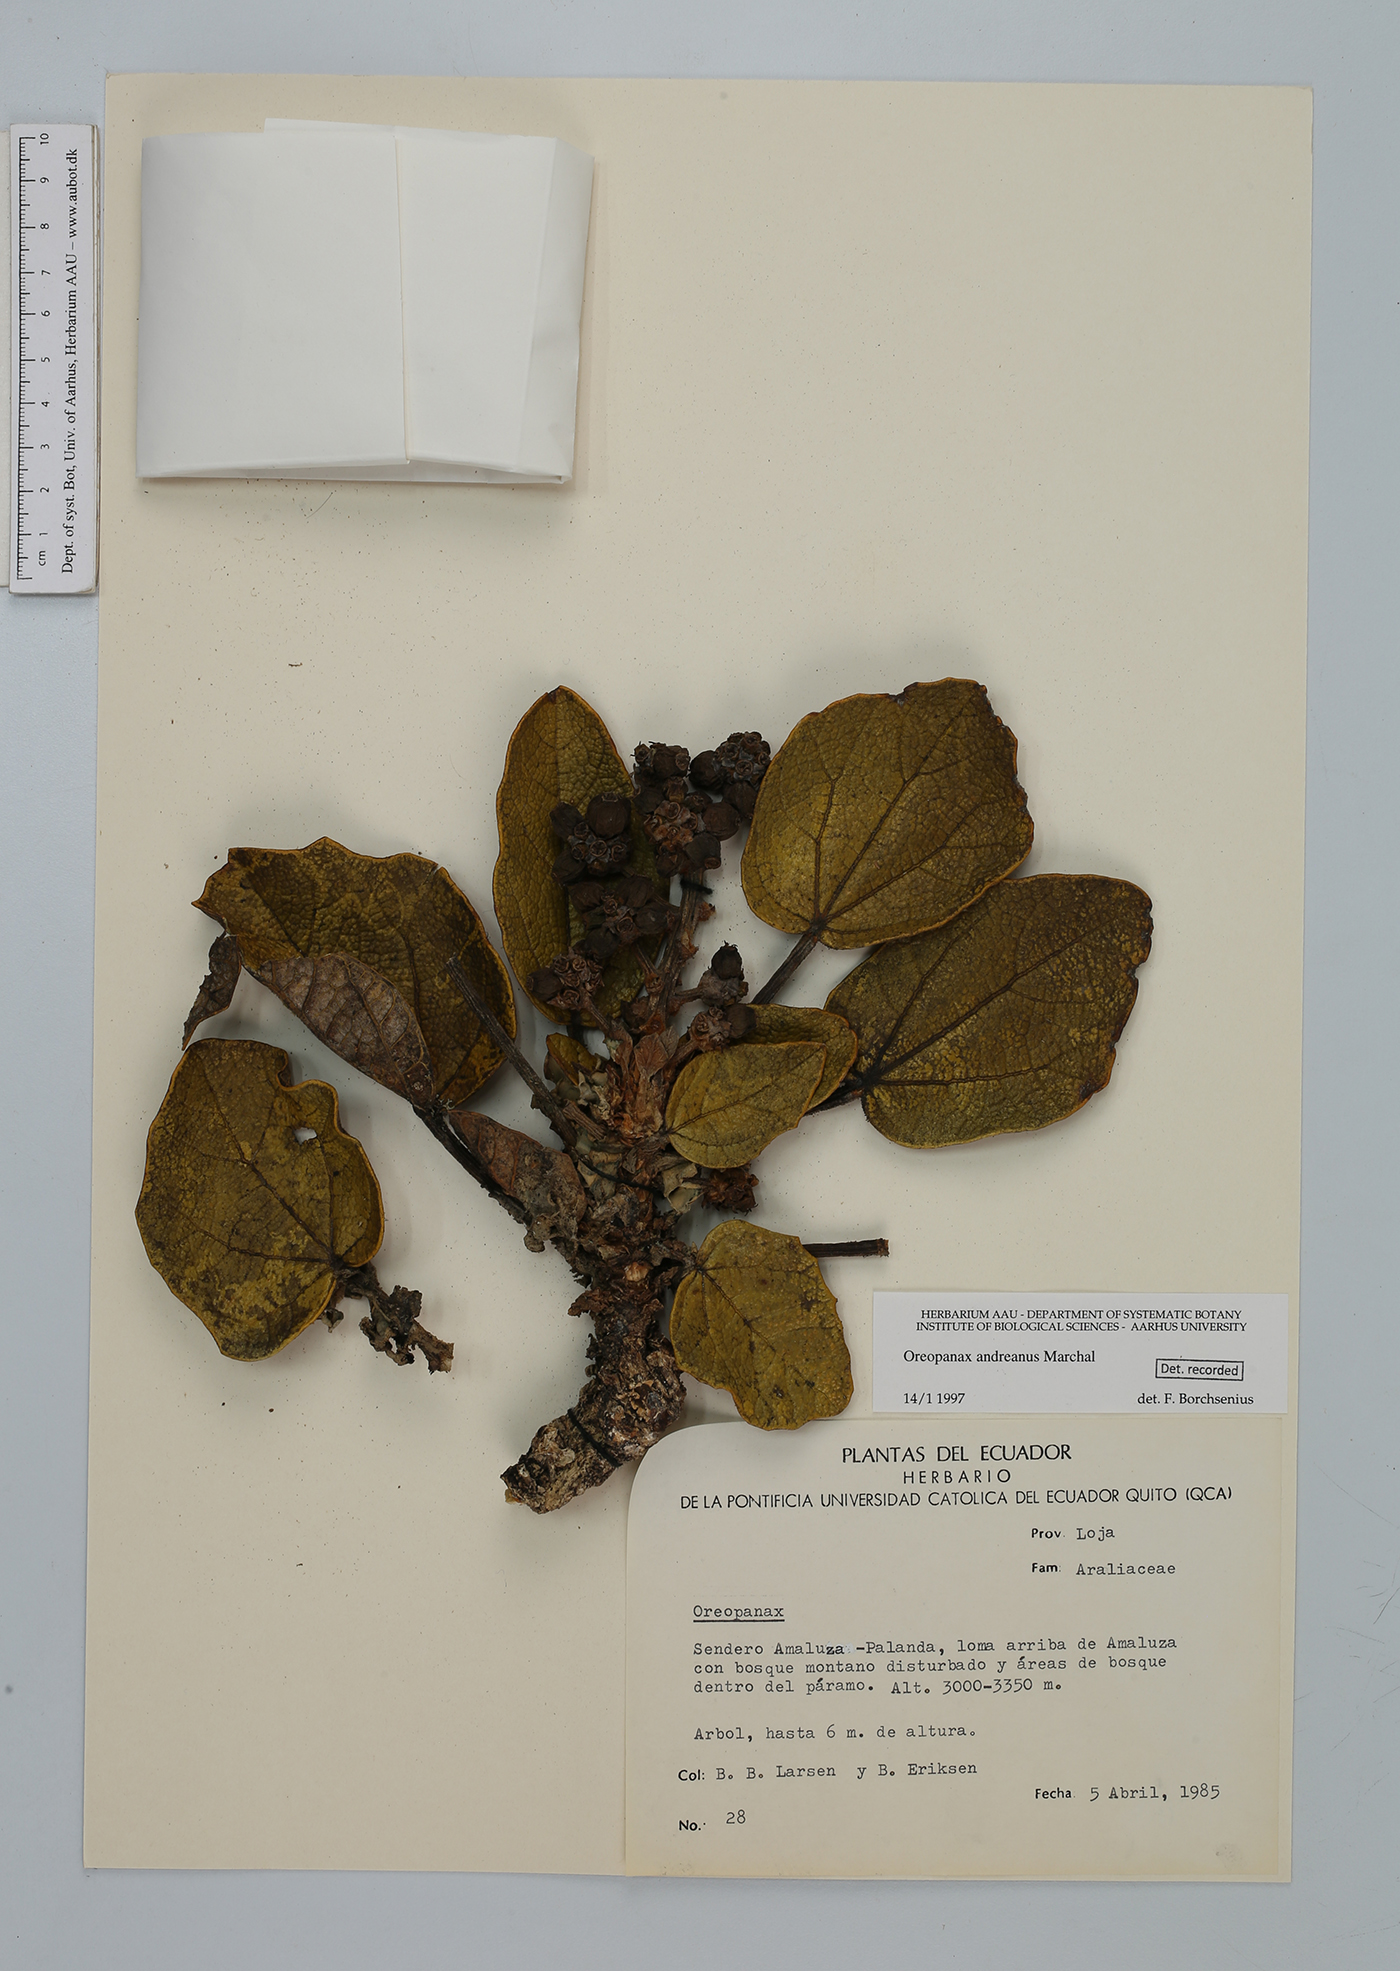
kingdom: Plantae
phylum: Tracheophyta
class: Magnoliopsida
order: Apiales
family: Araliaceae
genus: Oreopanax
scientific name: Oreopanax andreanus
